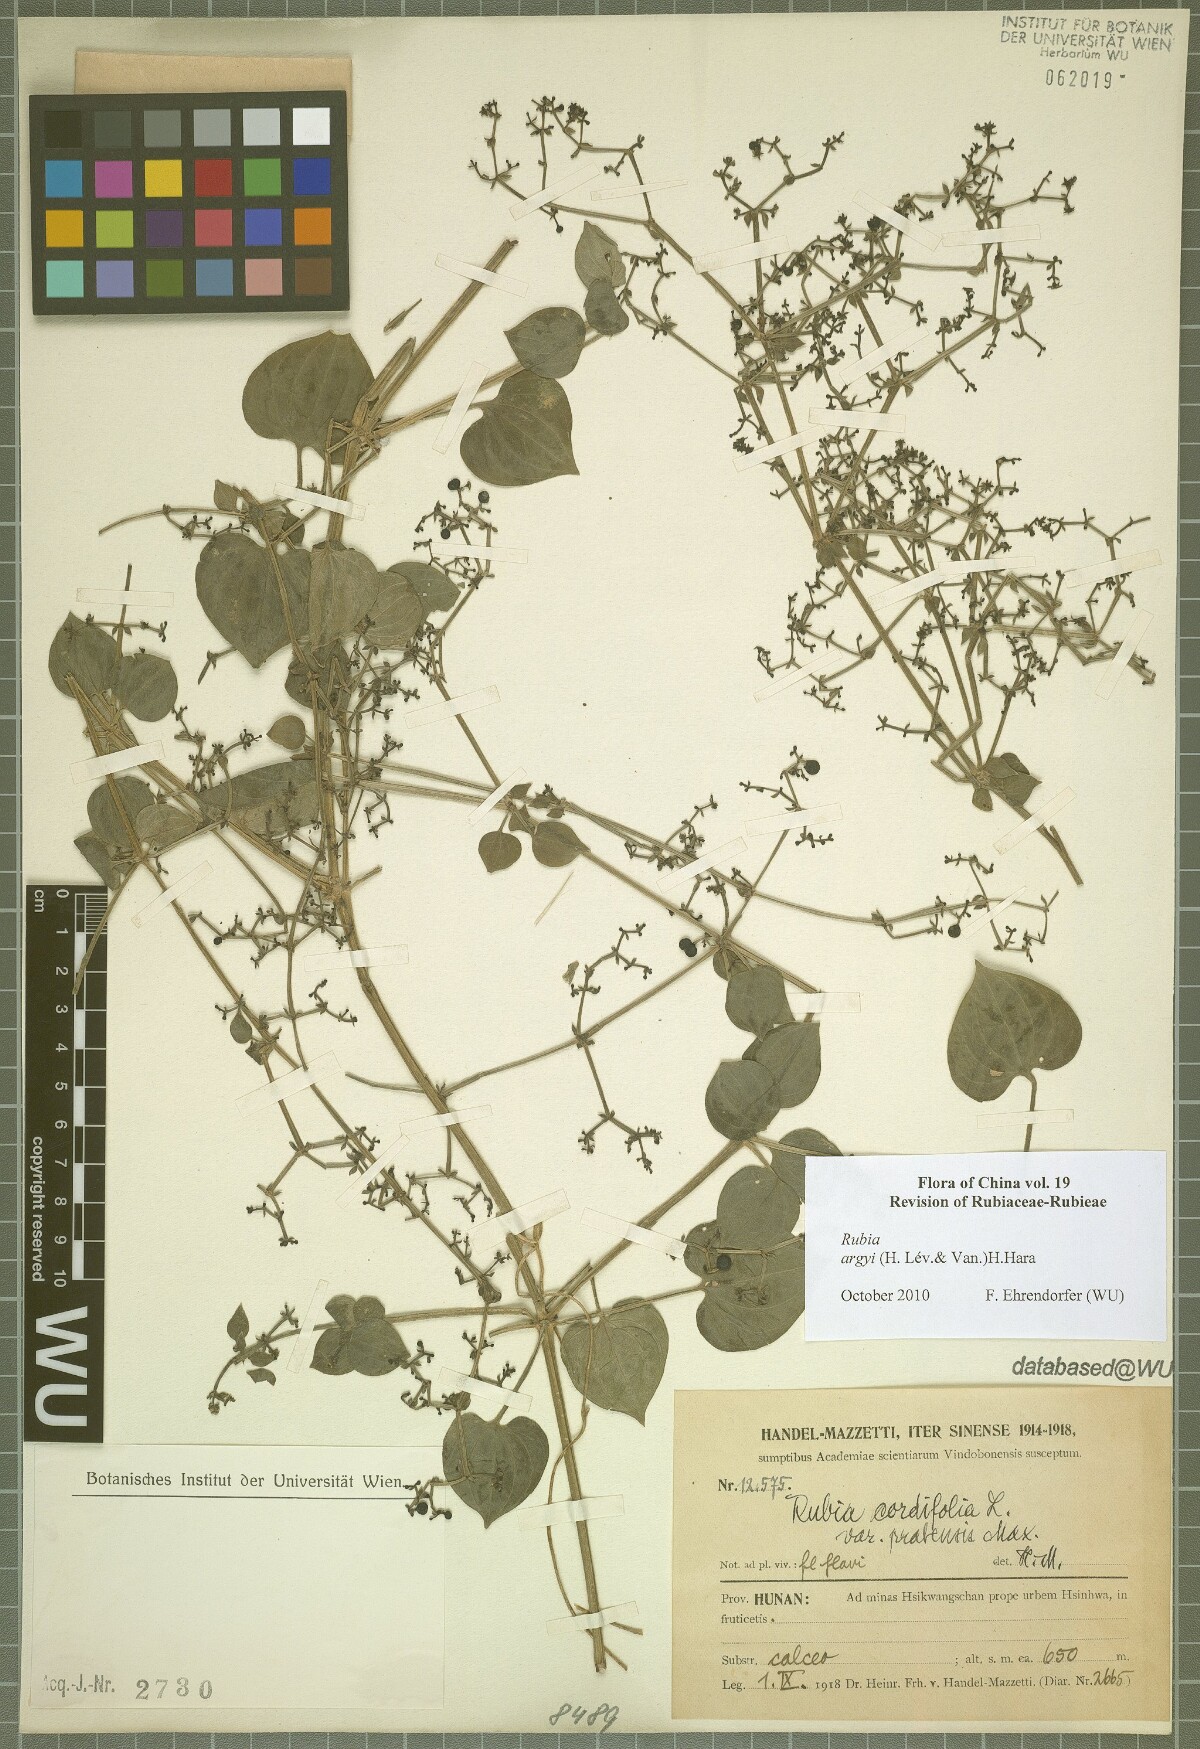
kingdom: Plantae
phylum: Tracheophyta
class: Magnoliopsida
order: Gentianales
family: Rubiaceae
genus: Rubia
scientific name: Rubia argyi
